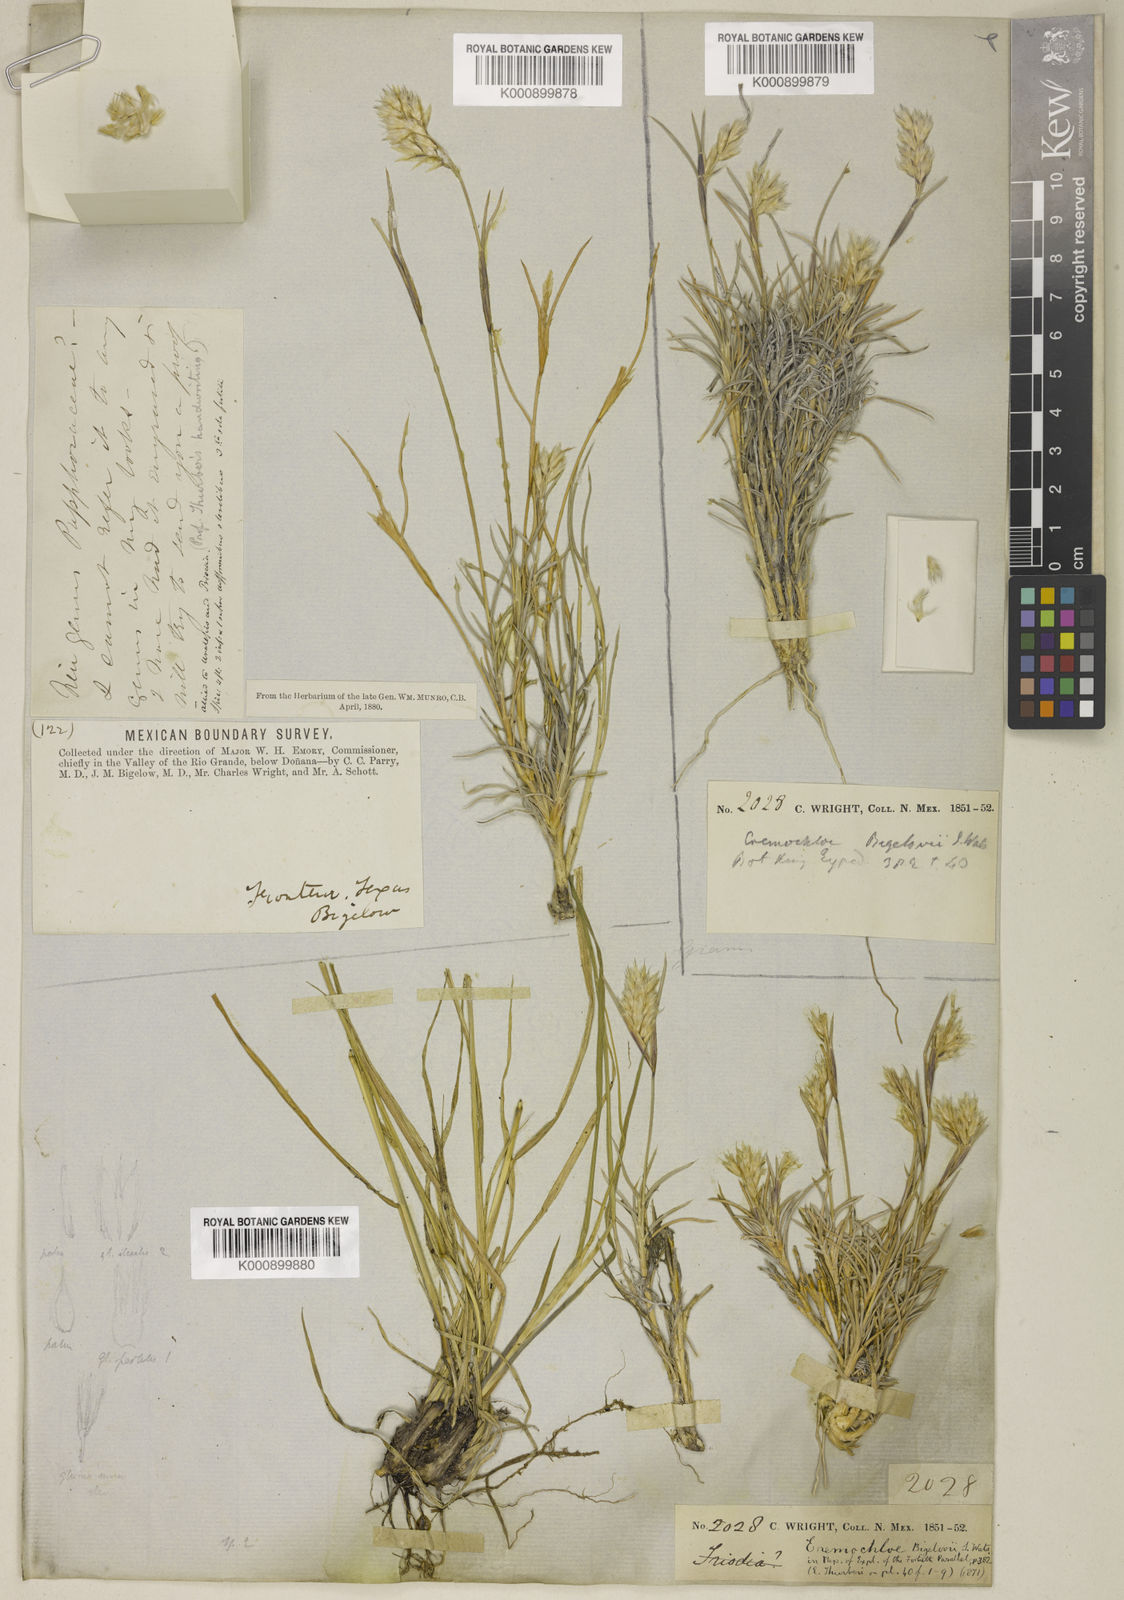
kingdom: Plantae
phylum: Tracheophyta
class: Liliopsida
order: Poales
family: Poaceae
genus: Blepharoneuron
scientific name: Blepharoneuron
